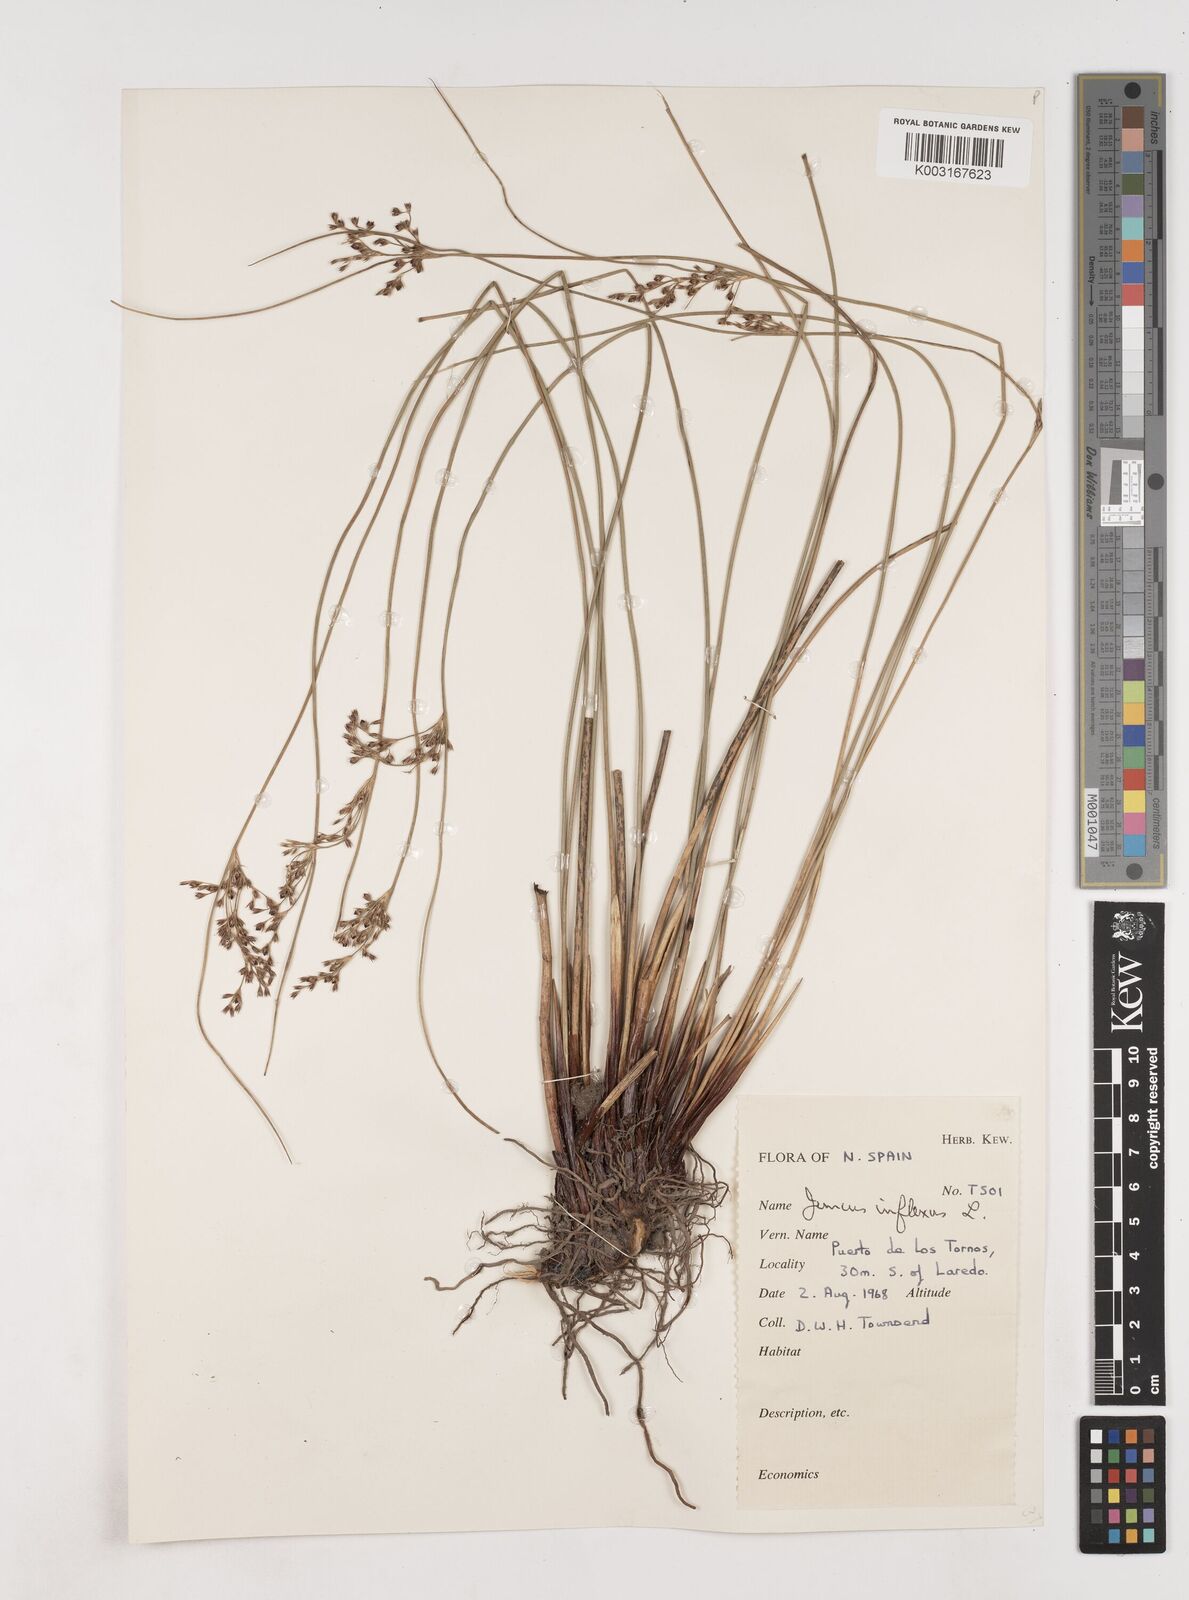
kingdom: Plantae
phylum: Tracheophyta
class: Liliopsida
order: Poales
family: Juncaceae
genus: Juncus
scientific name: Juncus inflexus
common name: Hard rush
